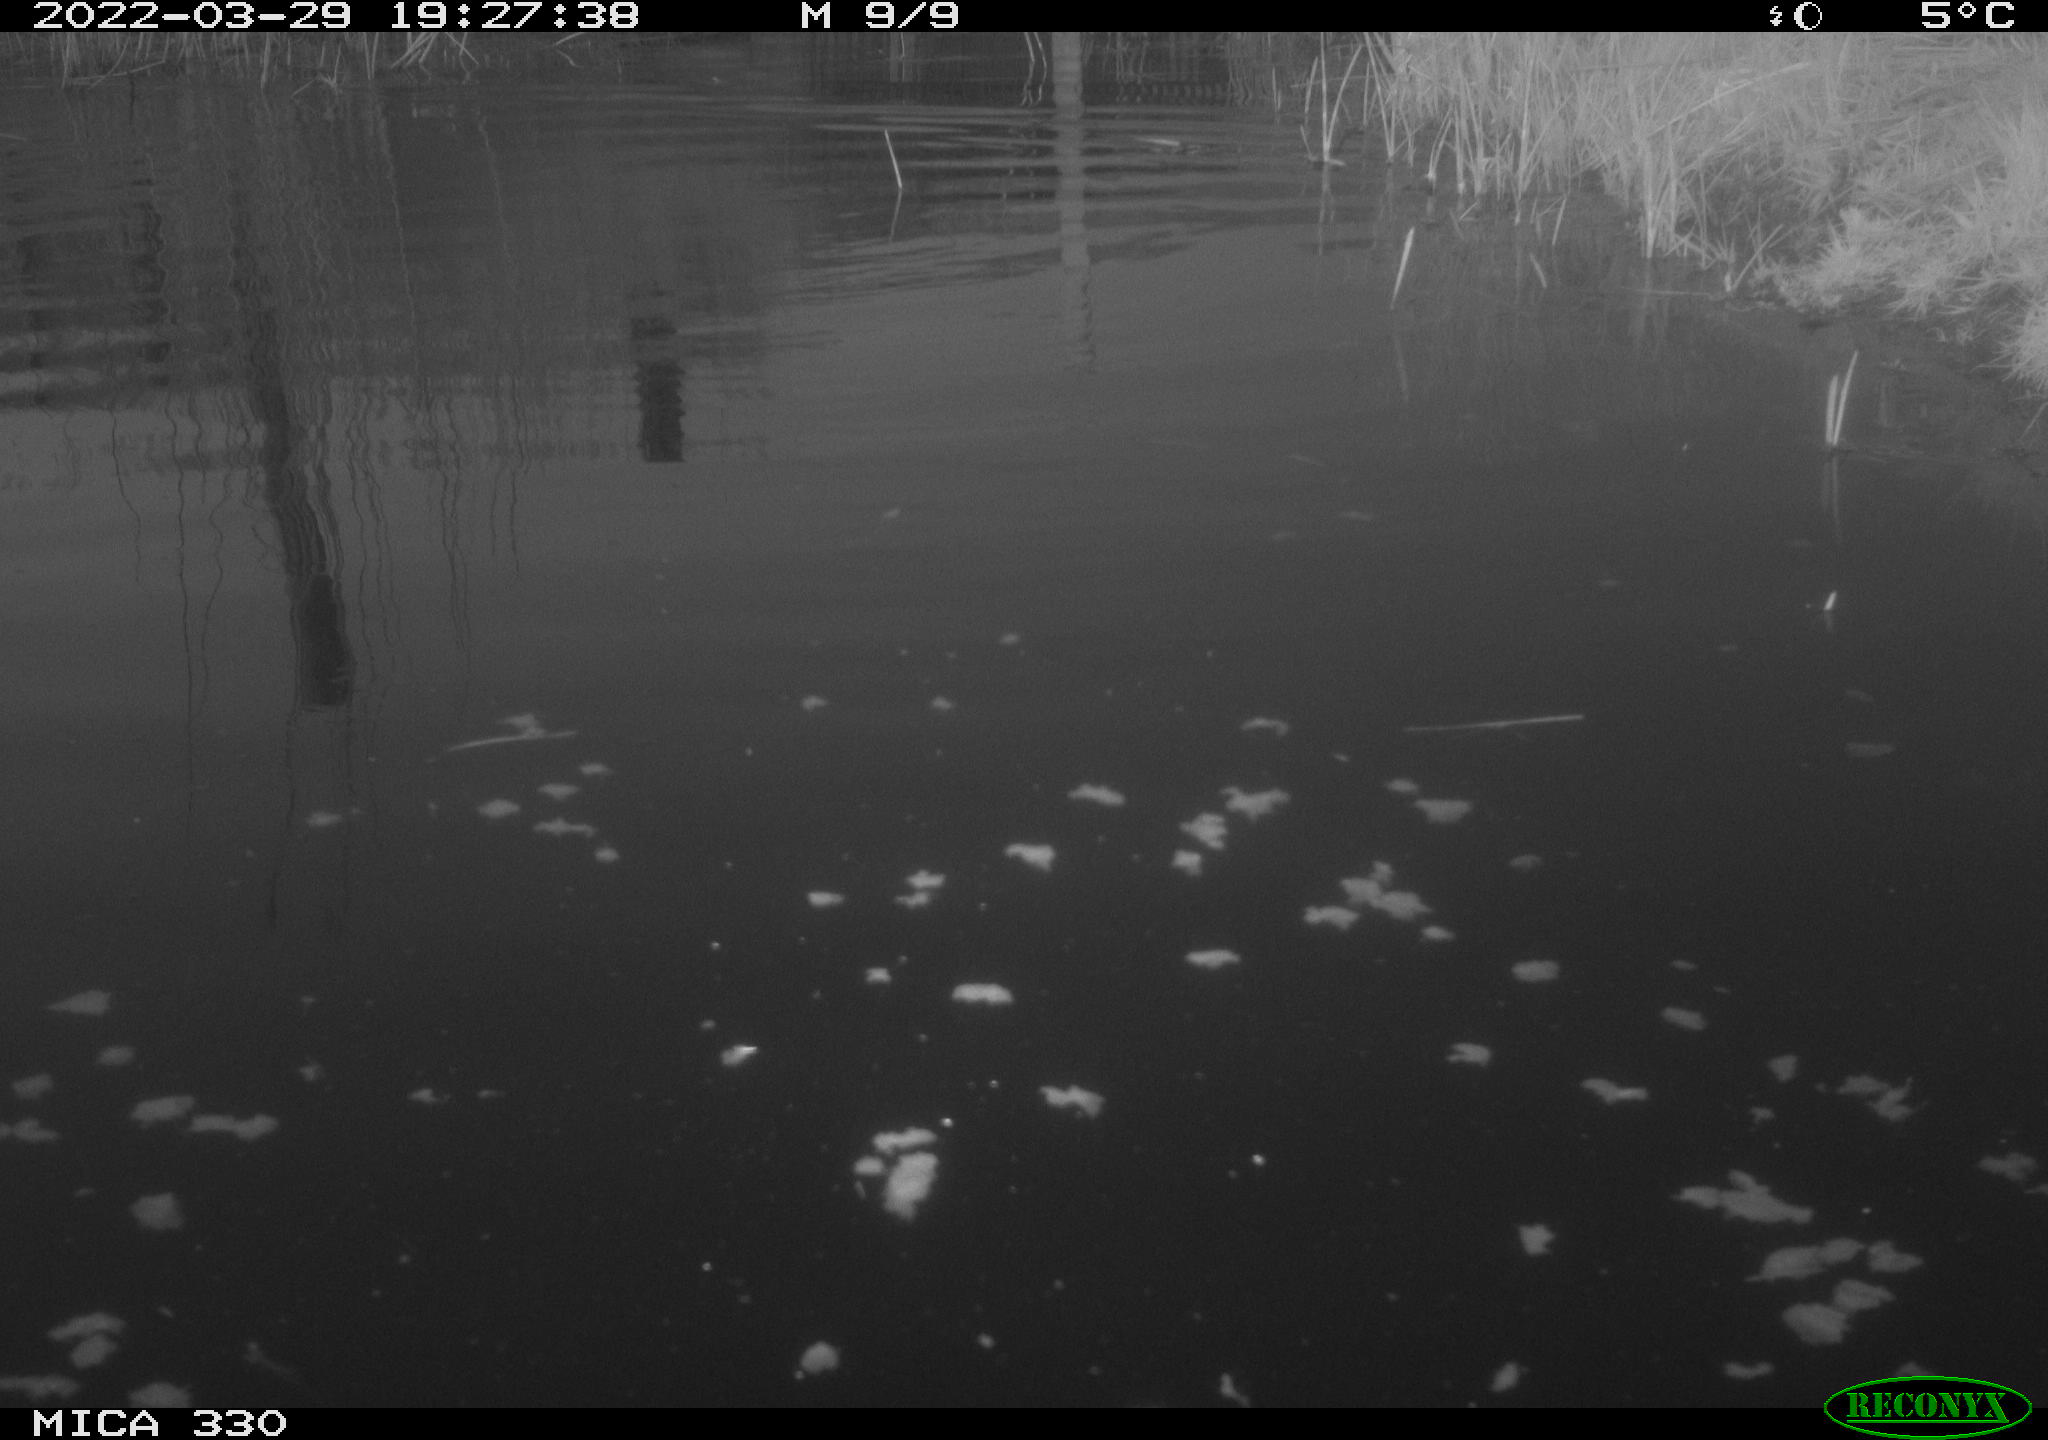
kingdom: Animalia
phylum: Chordata
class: Aves
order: Anseriformes
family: Anatidae
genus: Anas
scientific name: Anas platyrhynchos
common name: Mallard
